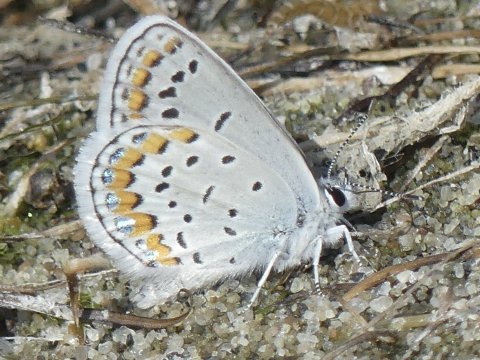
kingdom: Animalia
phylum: Arthropoda
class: Insecta
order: Lepidoptera
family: Lycaenidae
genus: Lycaeides
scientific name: Lycaeides melissa
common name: Melissa Blue
